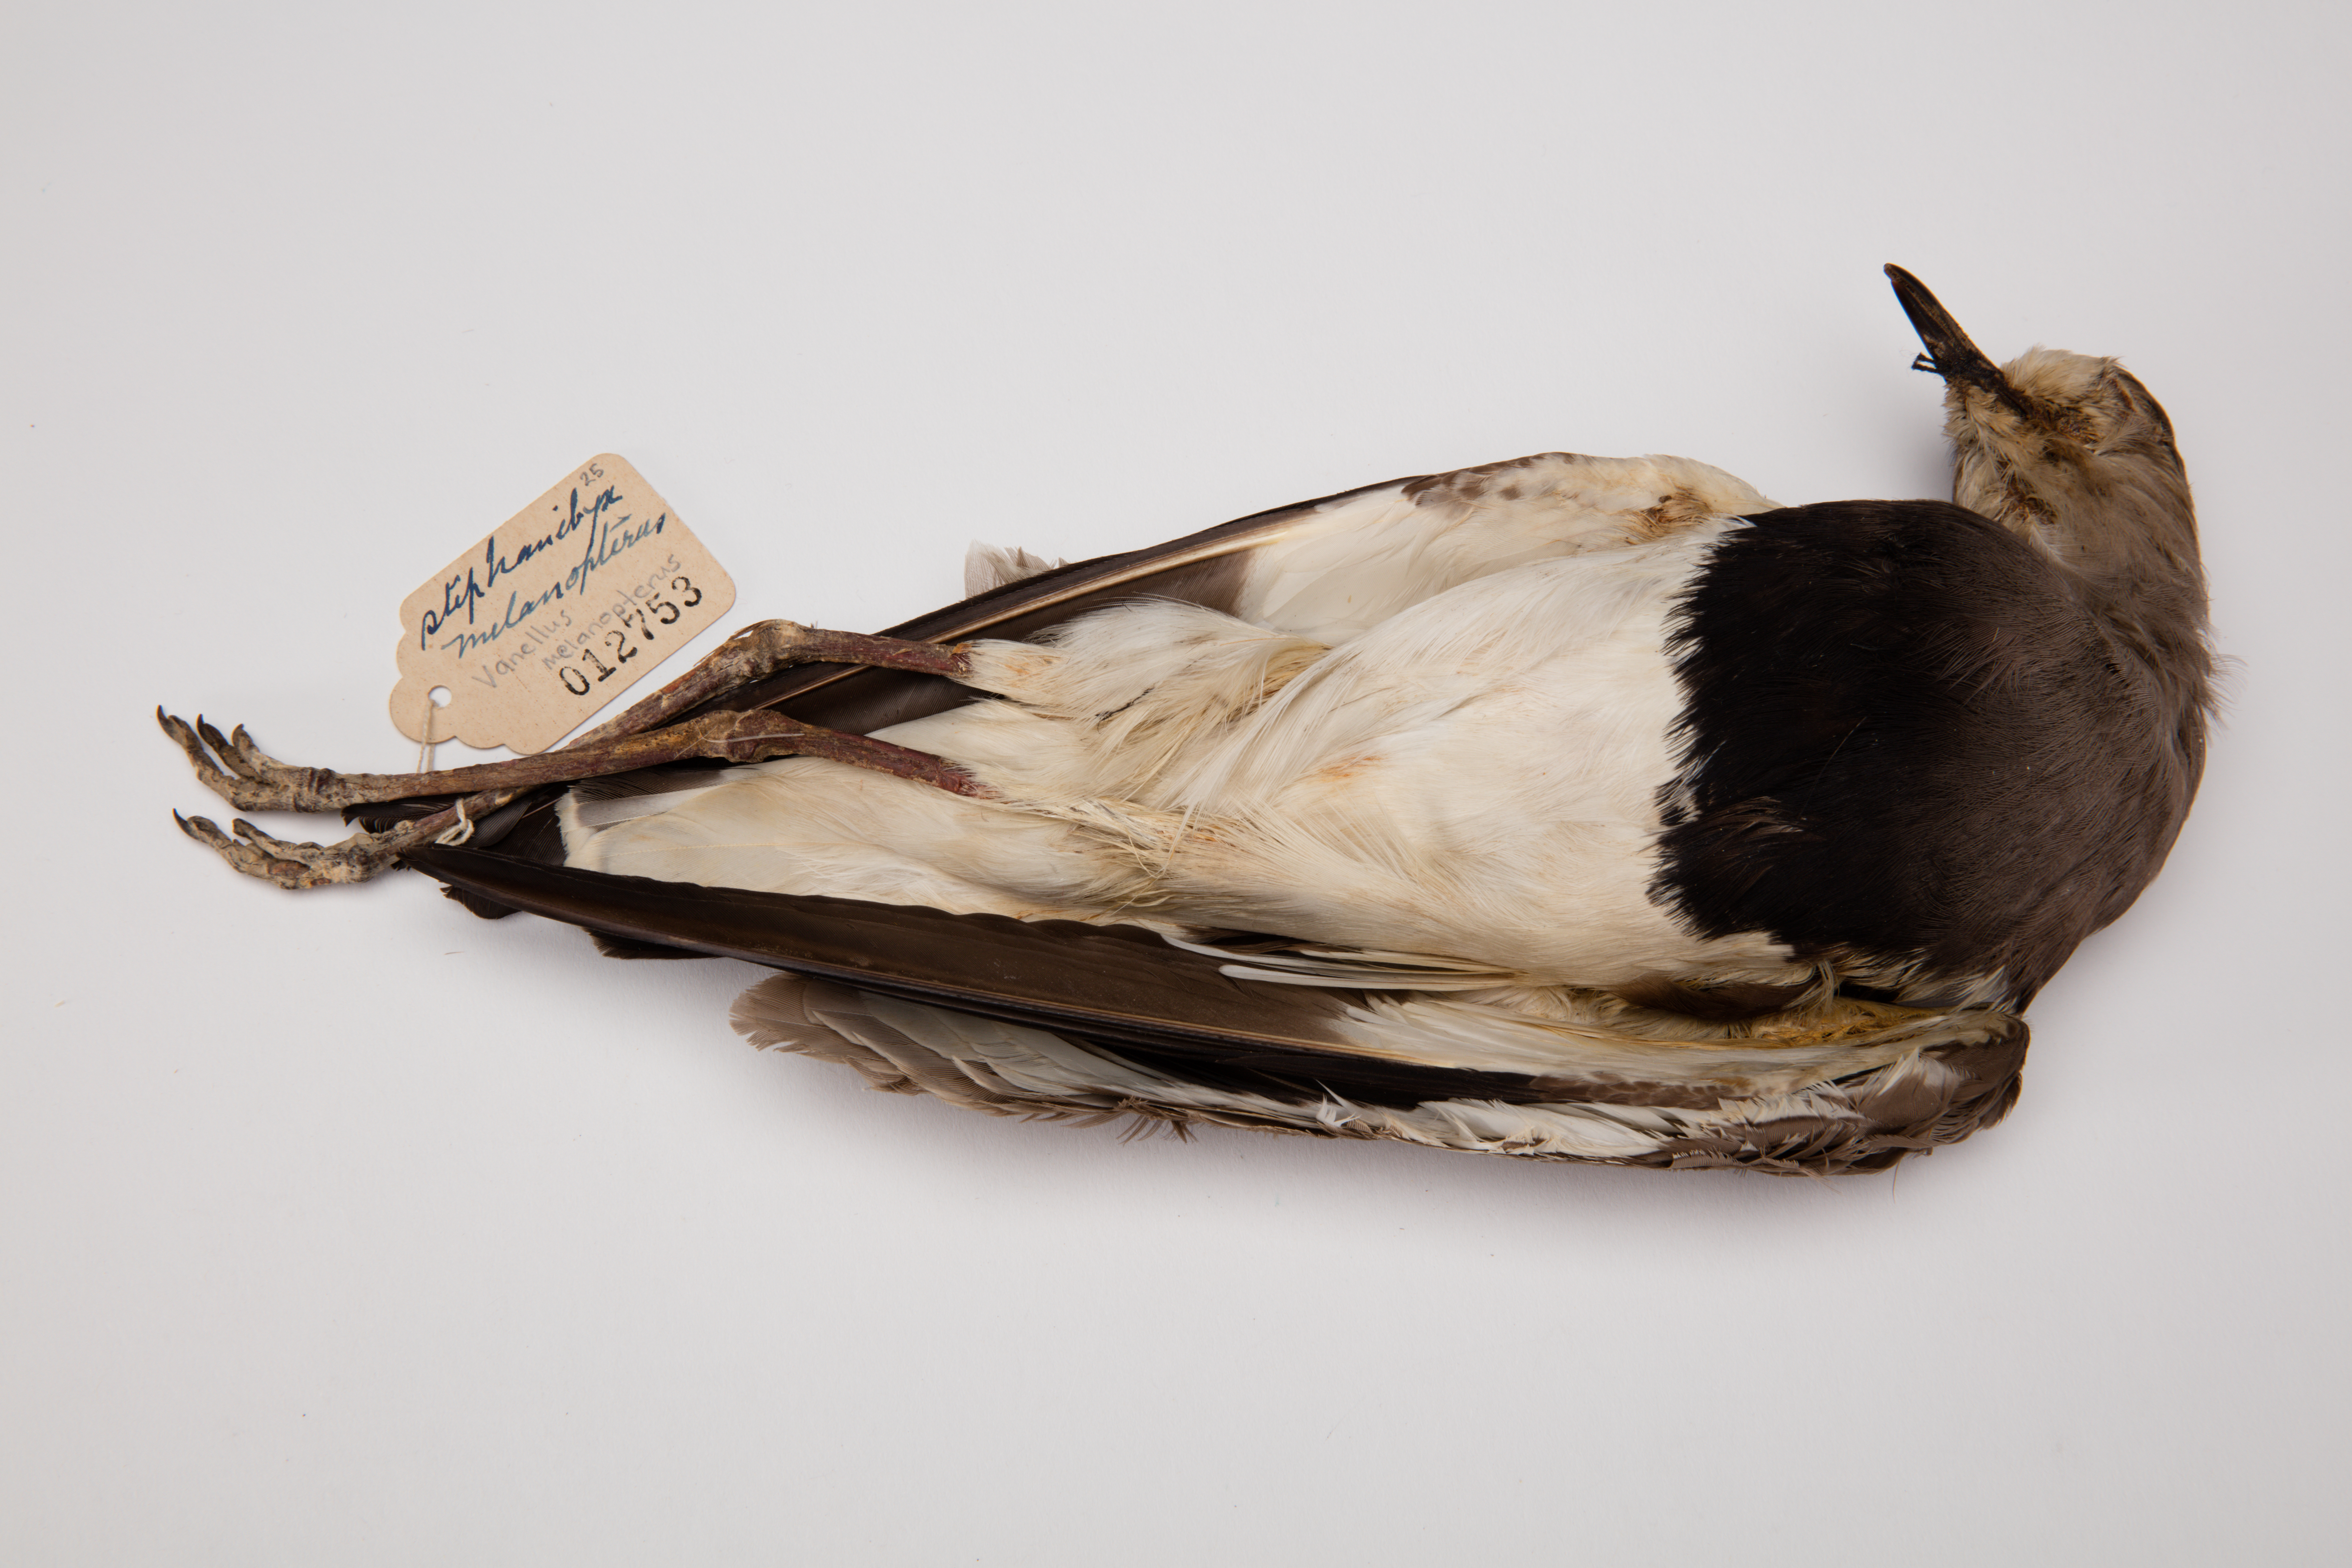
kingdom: Animalia
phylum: Chordata
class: Aves
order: Charadriiformes
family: Charadriidae
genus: Vanellus
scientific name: Vanellus melanopterus
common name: Black-winged lapwing
